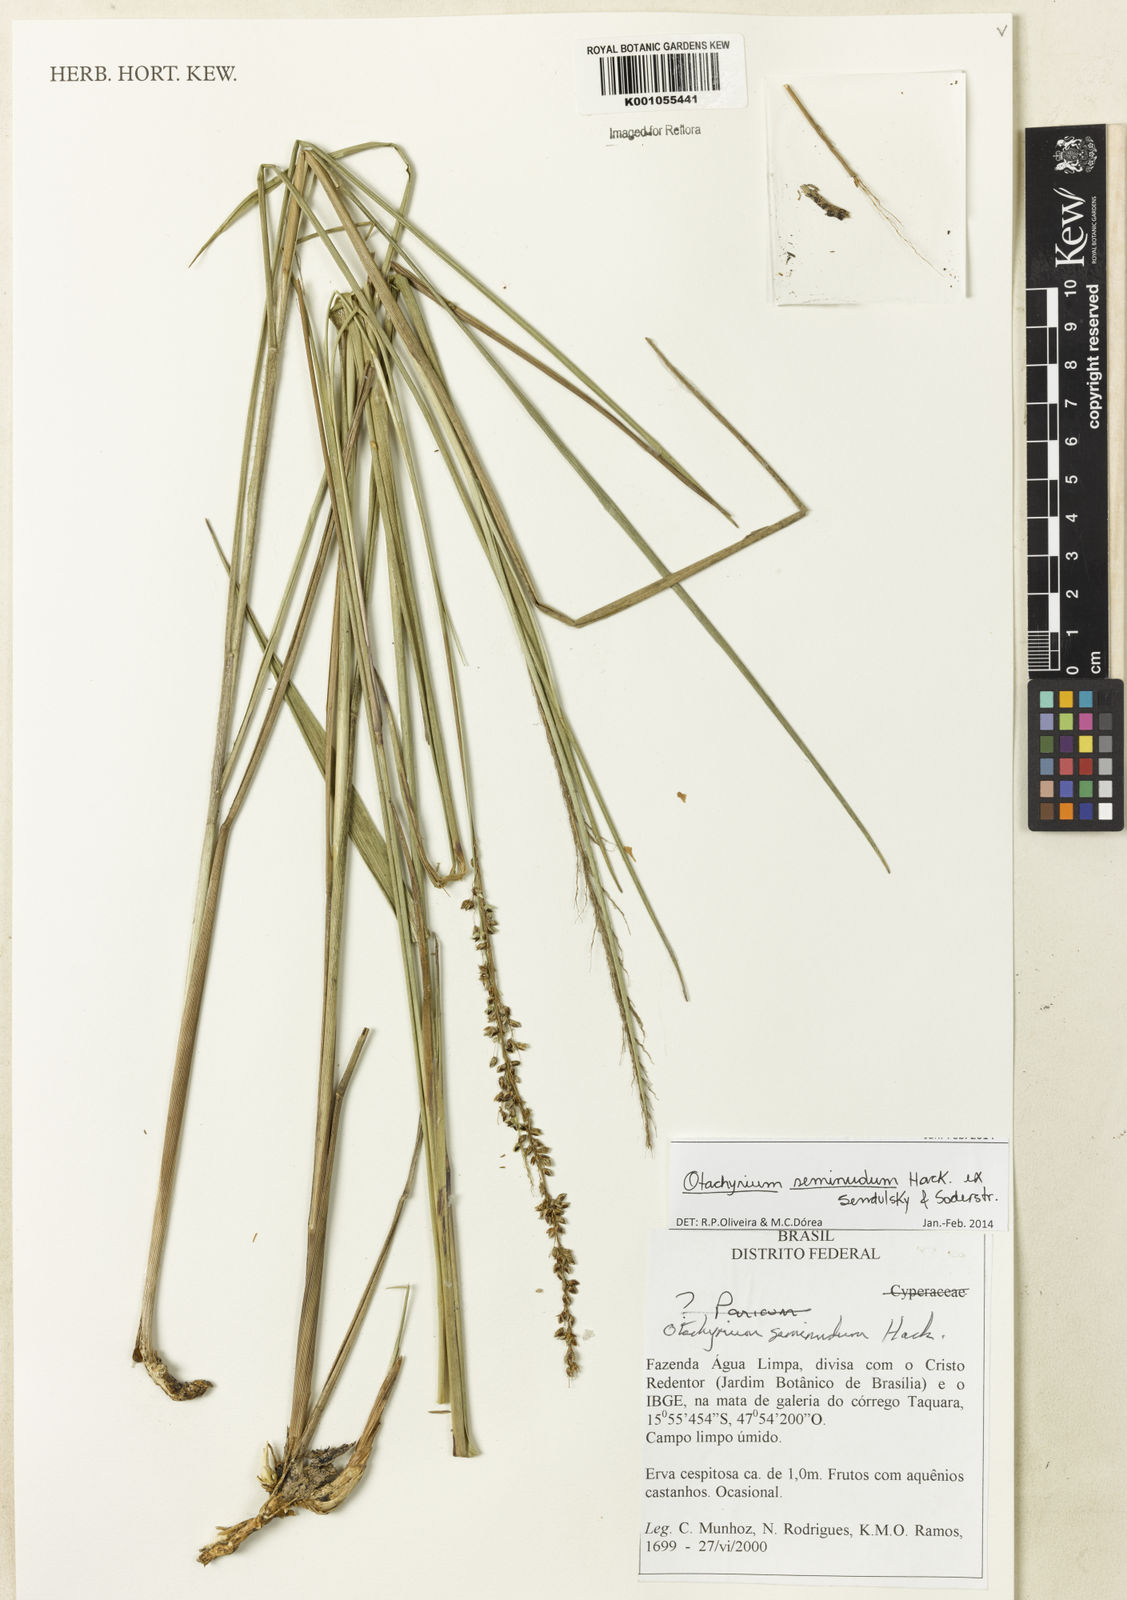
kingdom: Plantae
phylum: Tracheophyta
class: Liliopsida
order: Poales
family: Poaceae
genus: Otachyrium
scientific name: Otachyrium seminudum
